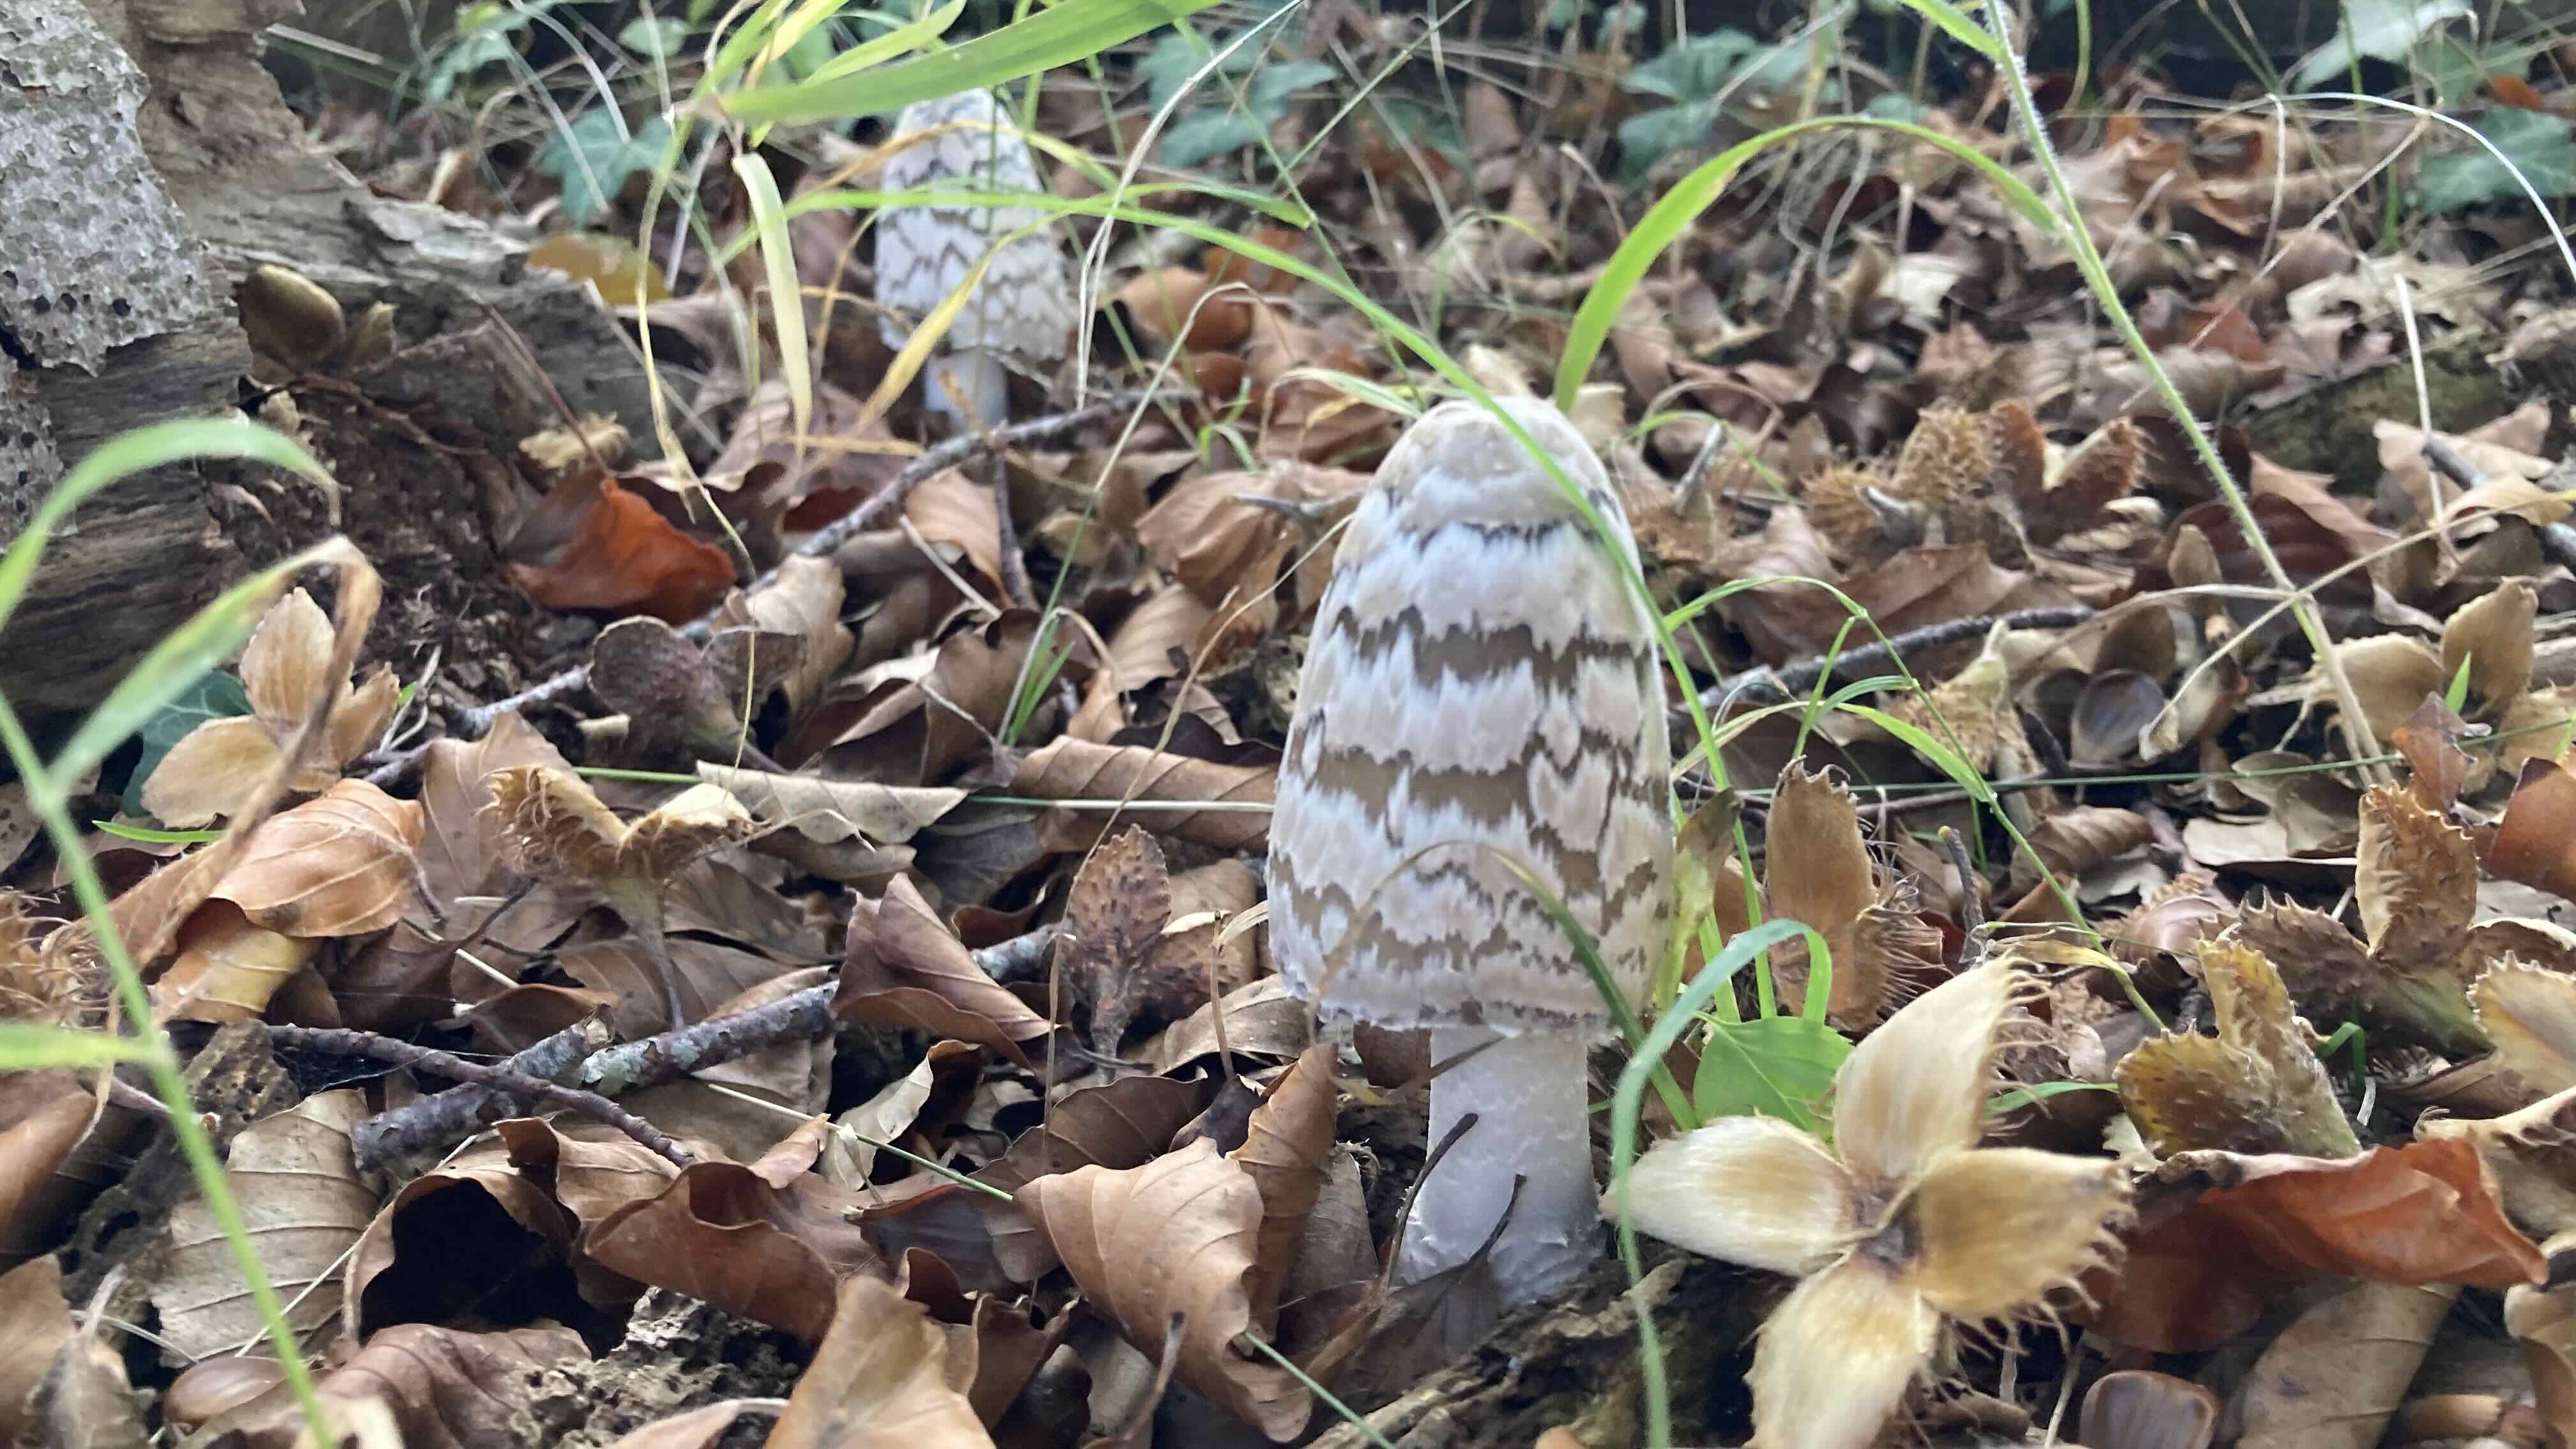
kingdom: Fungi
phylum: Basidiomycota
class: Agaricomycetes
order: Agaricales
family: Psathyrellaceae
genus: Coprinopsis
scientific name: Coprinopsis picacea
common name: skade-blækhat
